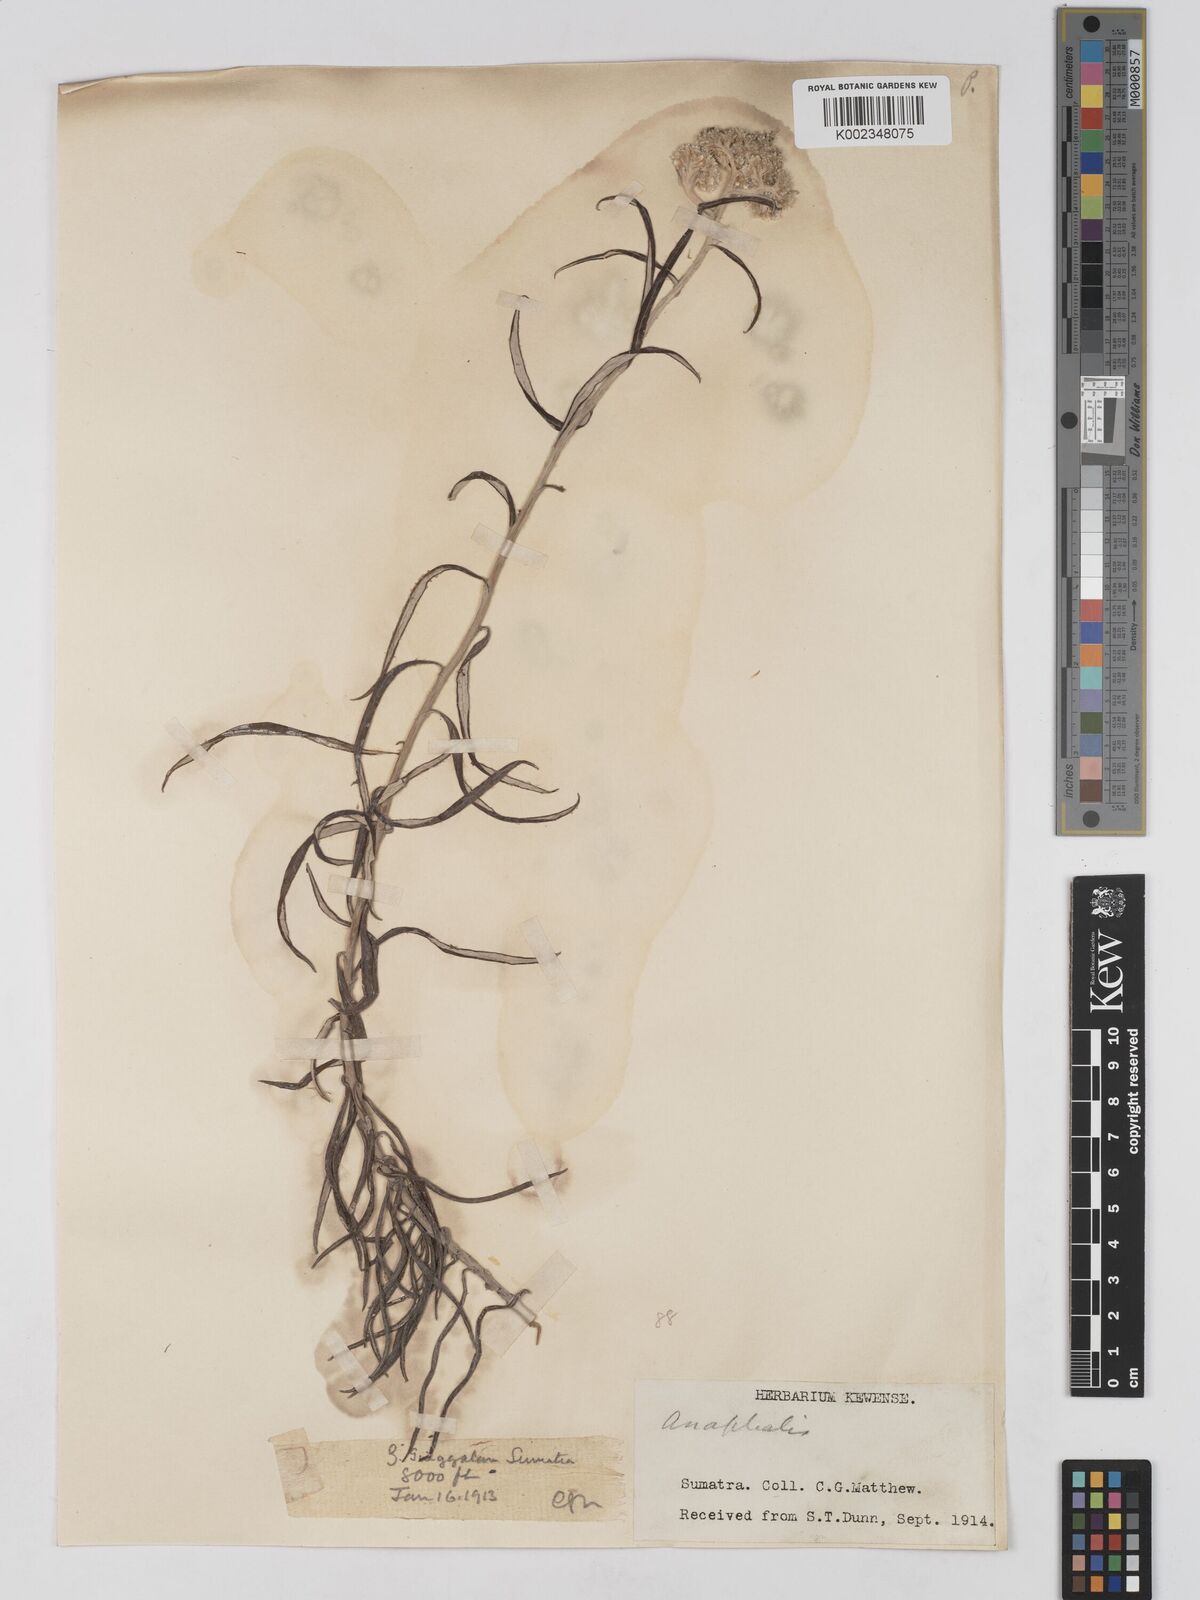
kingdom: Plantae
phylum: Tracheophyta
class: Magnoliopsida
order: Asterales
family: Asteraceae
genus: Anaphalis
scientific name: Anaphalis
